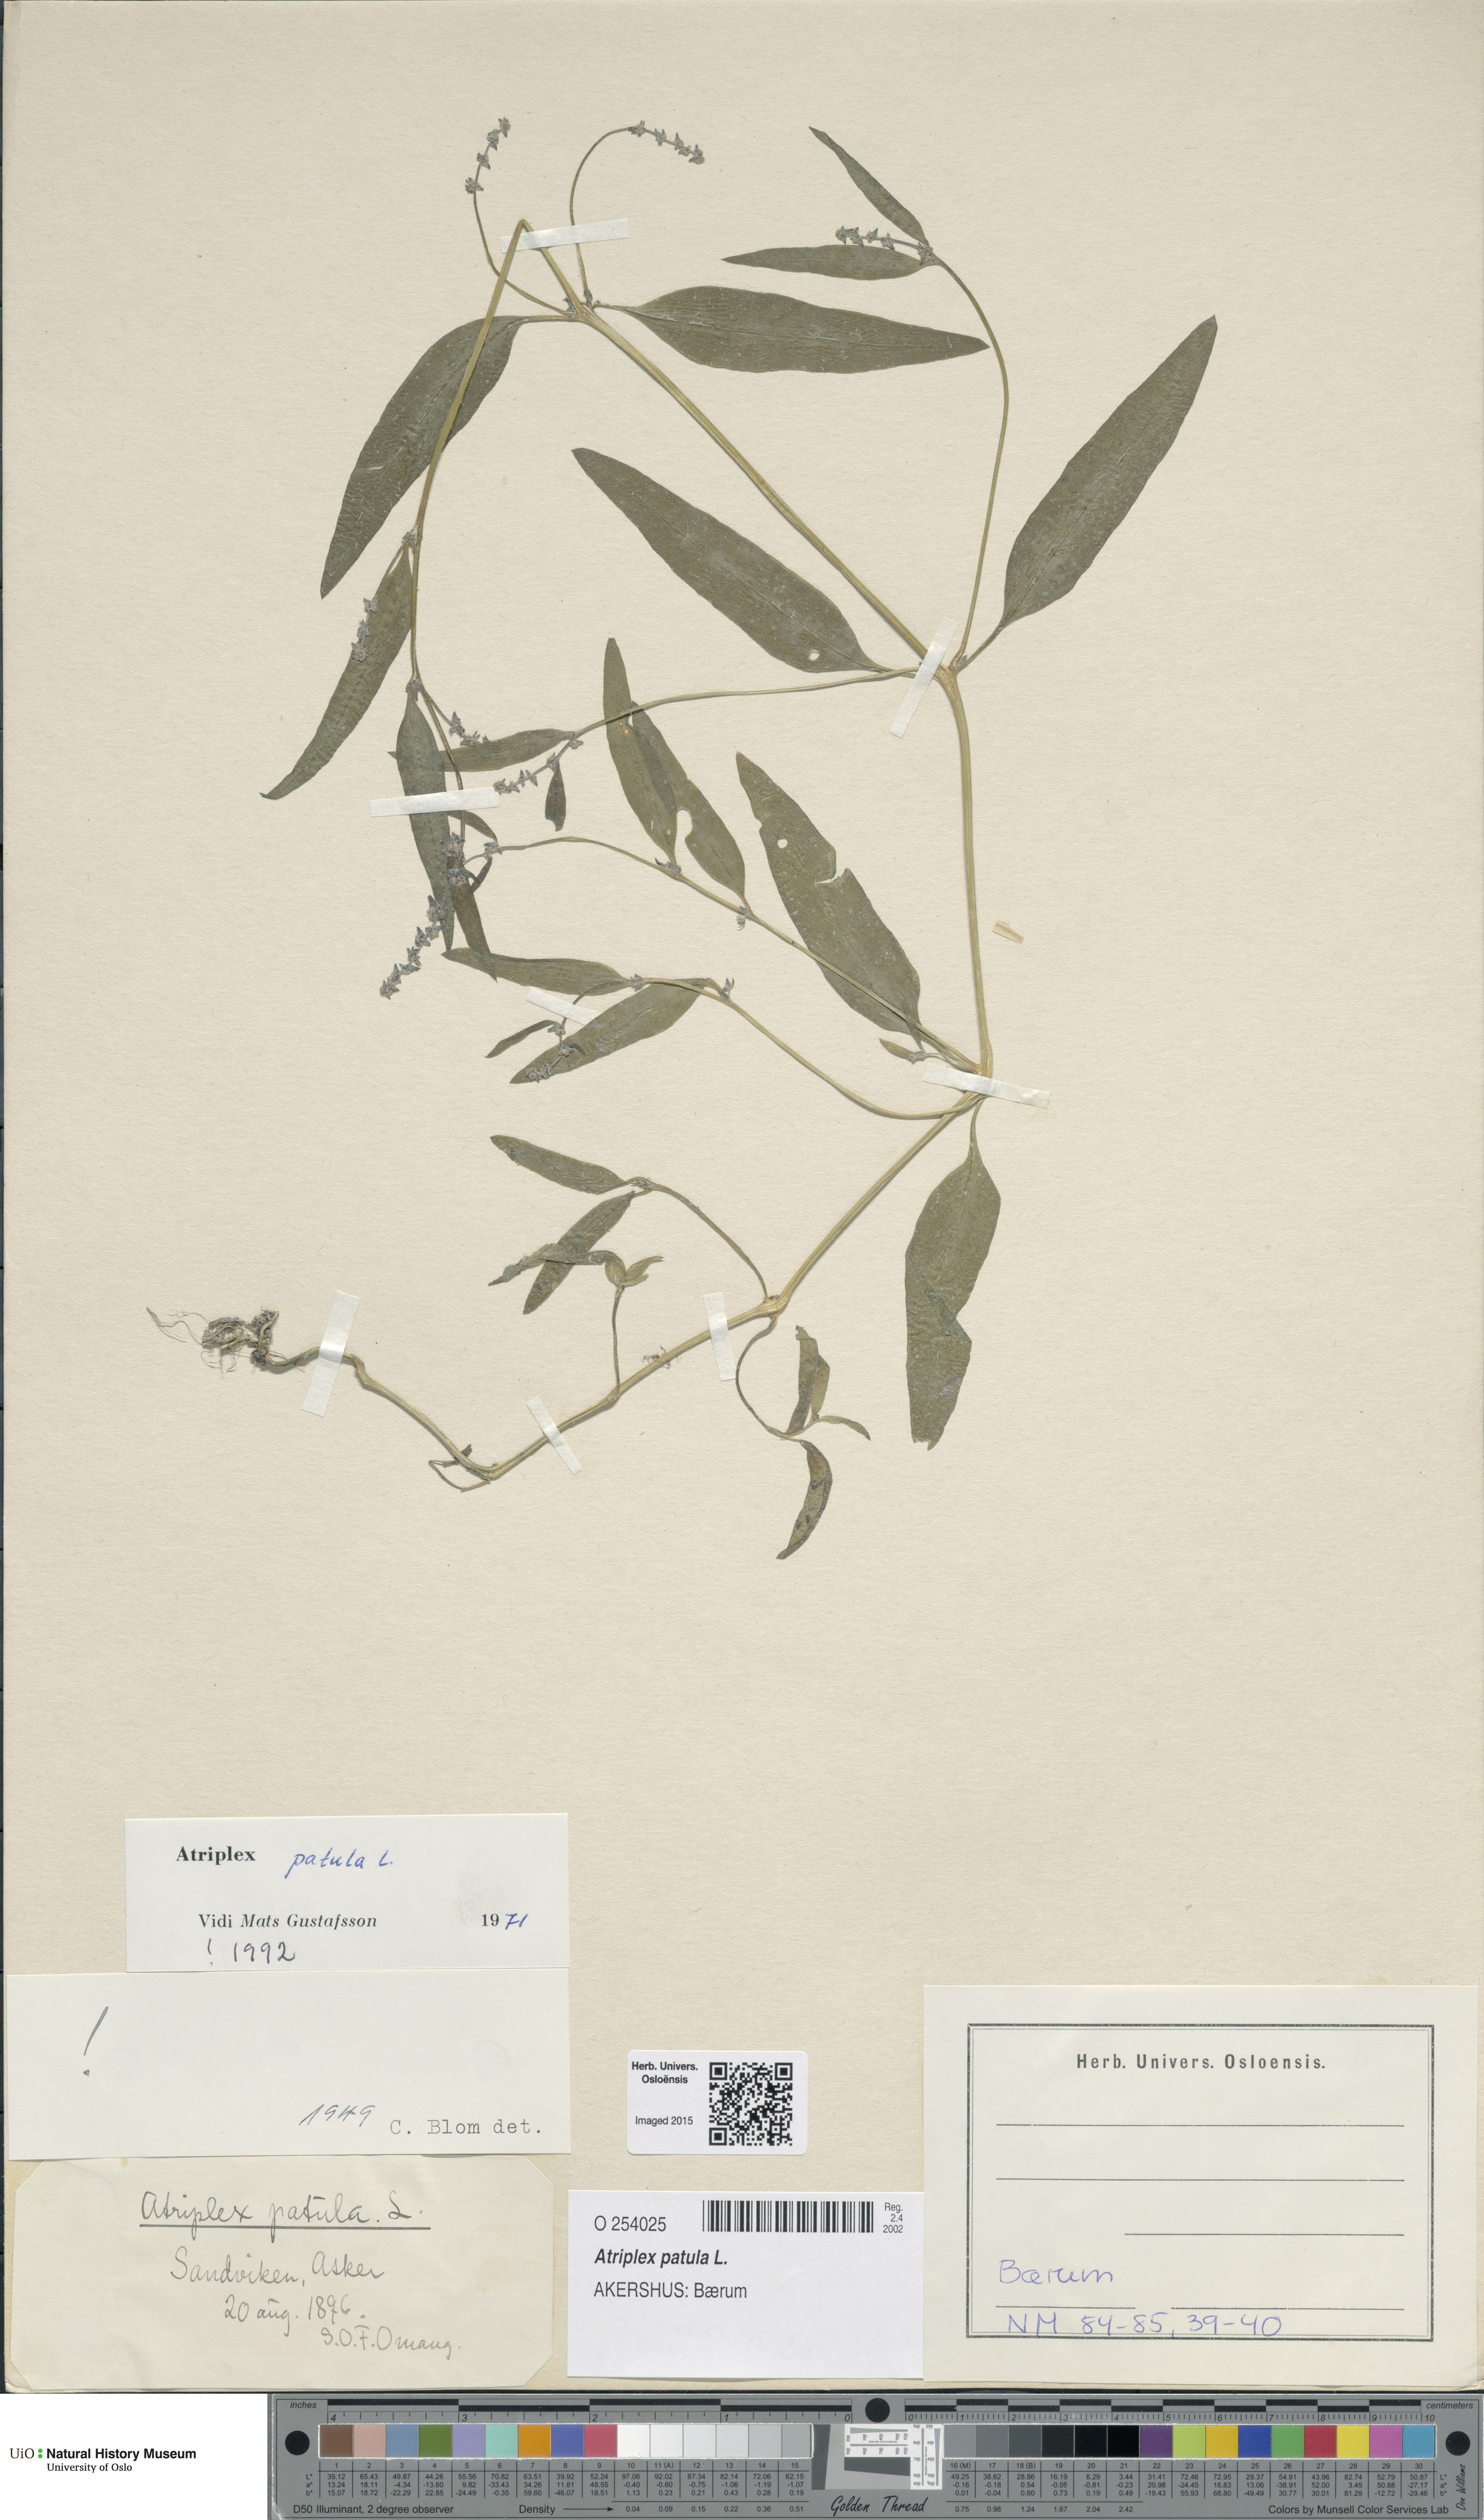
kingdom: Plantae
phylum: Tracheophyta
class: Magnoliopsida
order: Caryophyllales
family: Amaranthaceae
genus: Atriplex
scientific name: Atriplex patula
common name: Common orache
